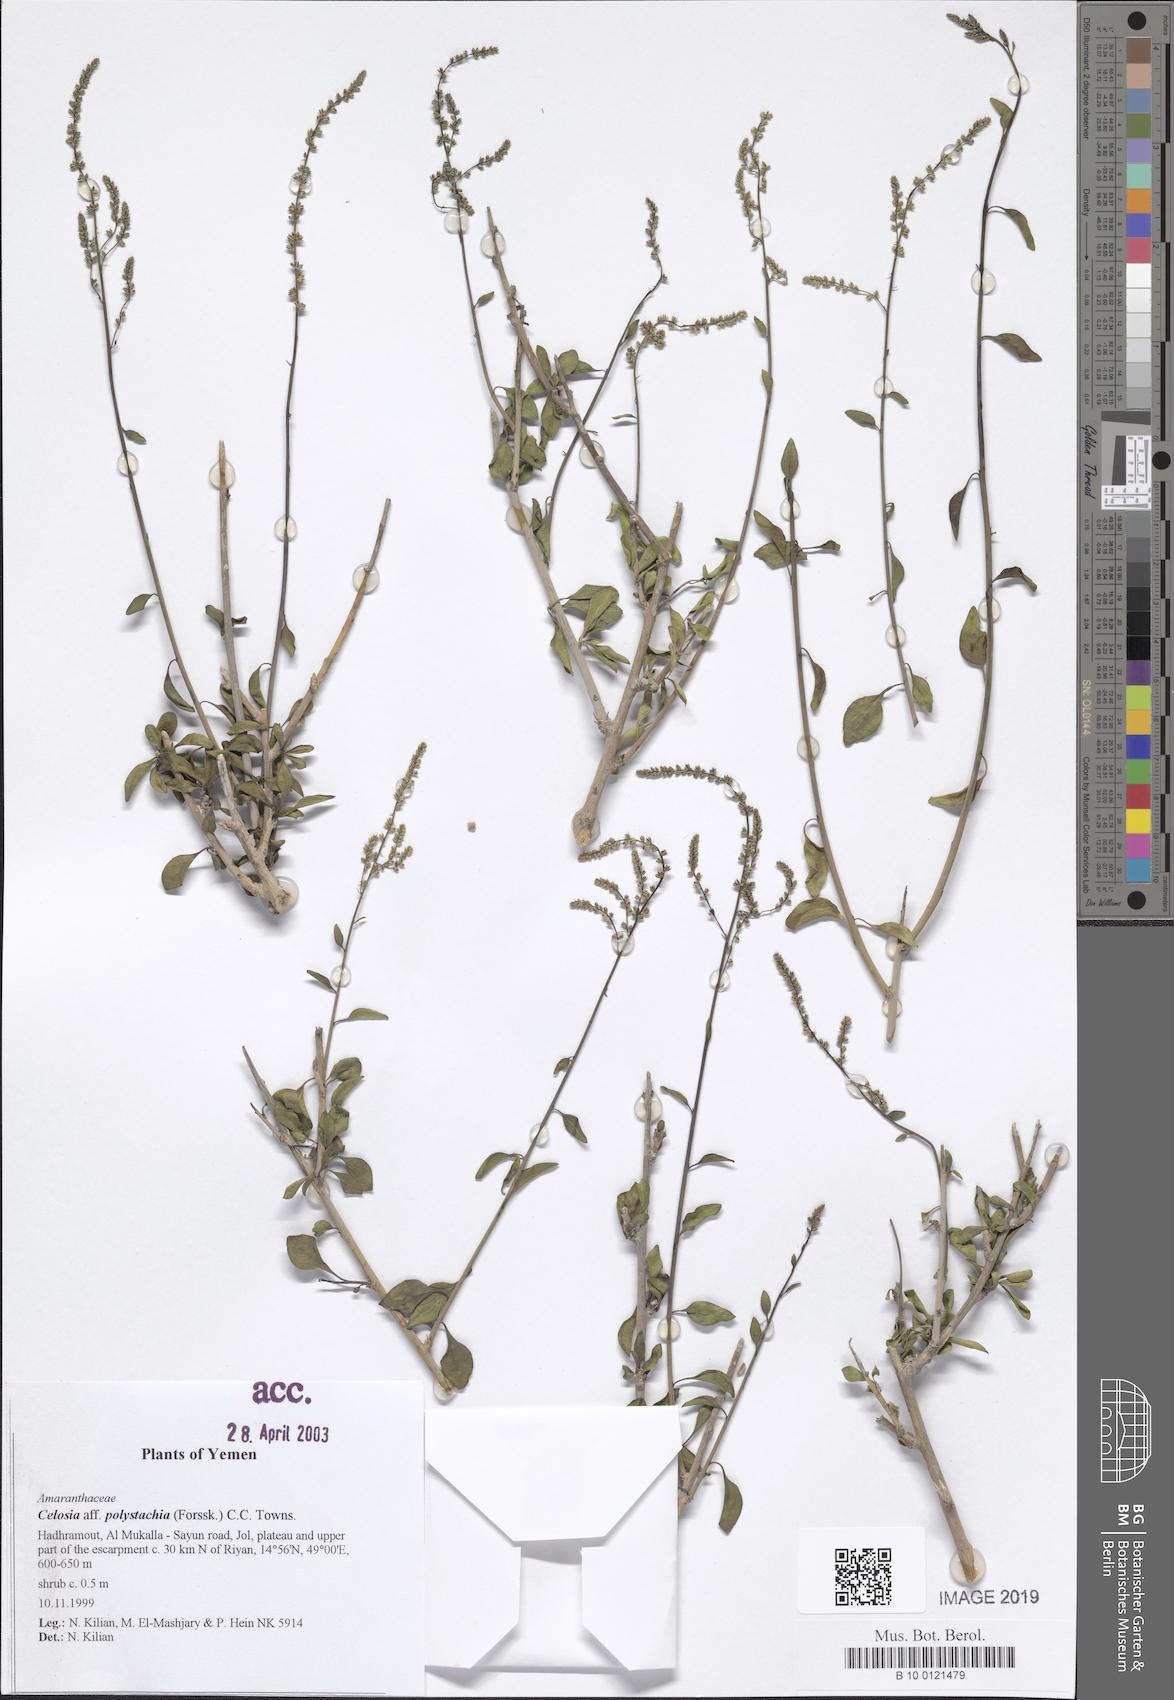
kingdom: Plantae
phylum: Tracheophyta
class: Magnoliopsida
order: Caryophyllales
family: Amaranthaceae
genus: Celosia
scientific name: Celosia polystachya
